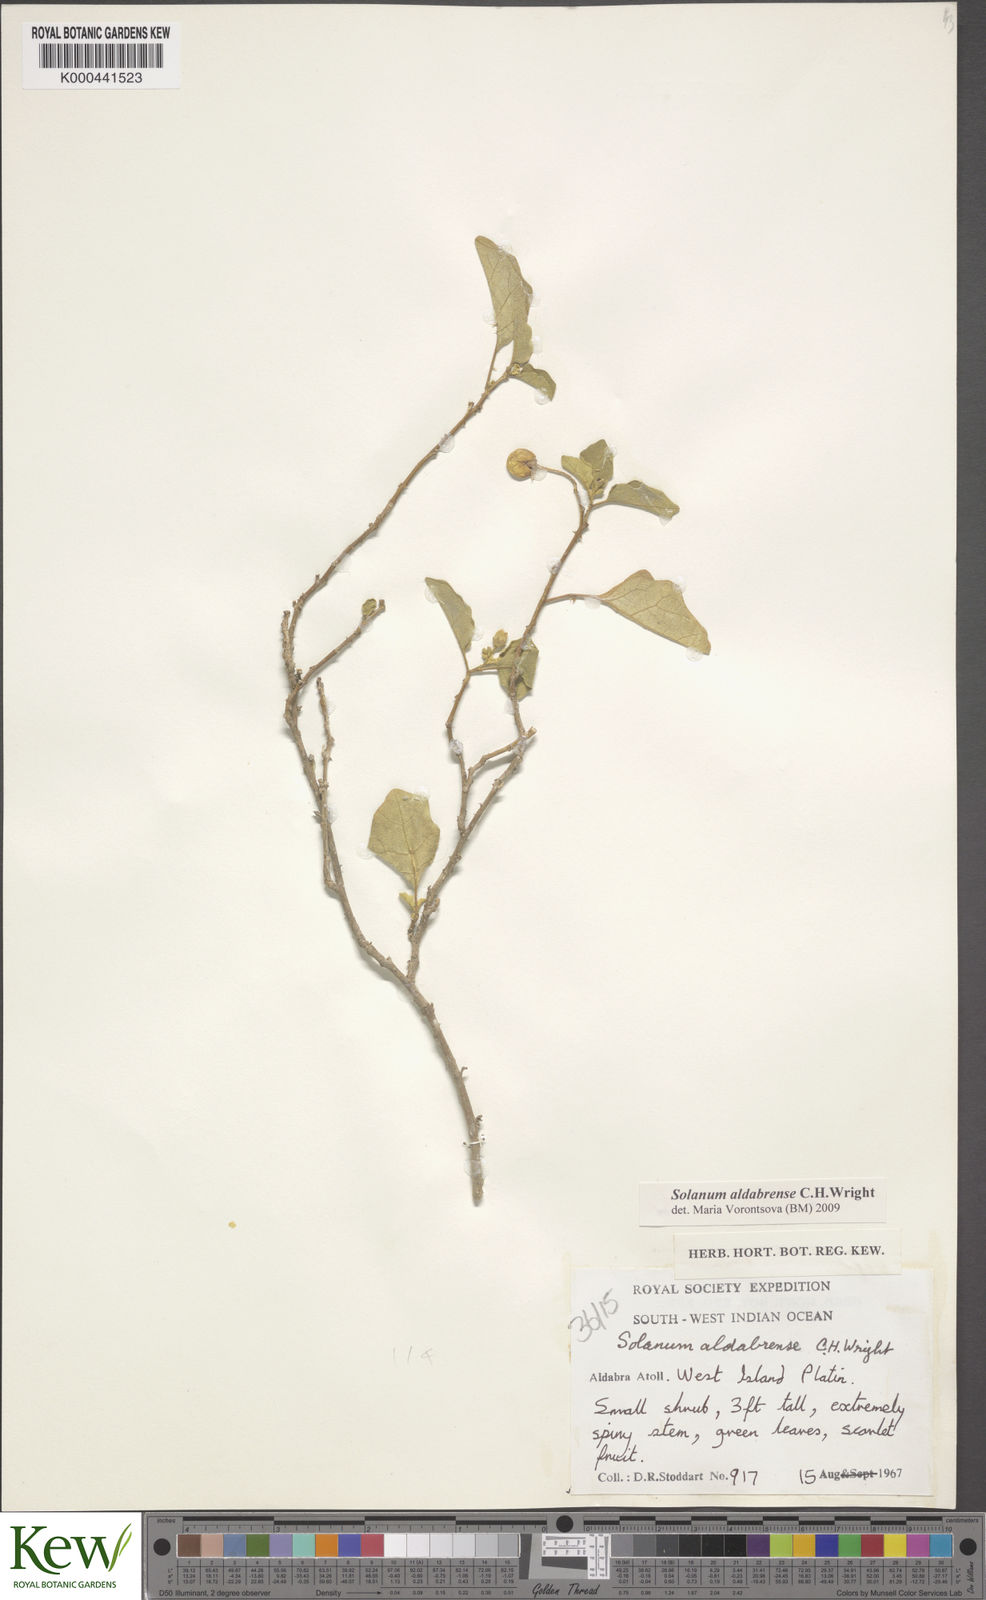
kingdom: Plantae
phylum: Tracheophyta
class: Magnoliopsida
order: Solanales
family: Solanaceae
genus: Solanum
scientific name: Solanum aldabrense
